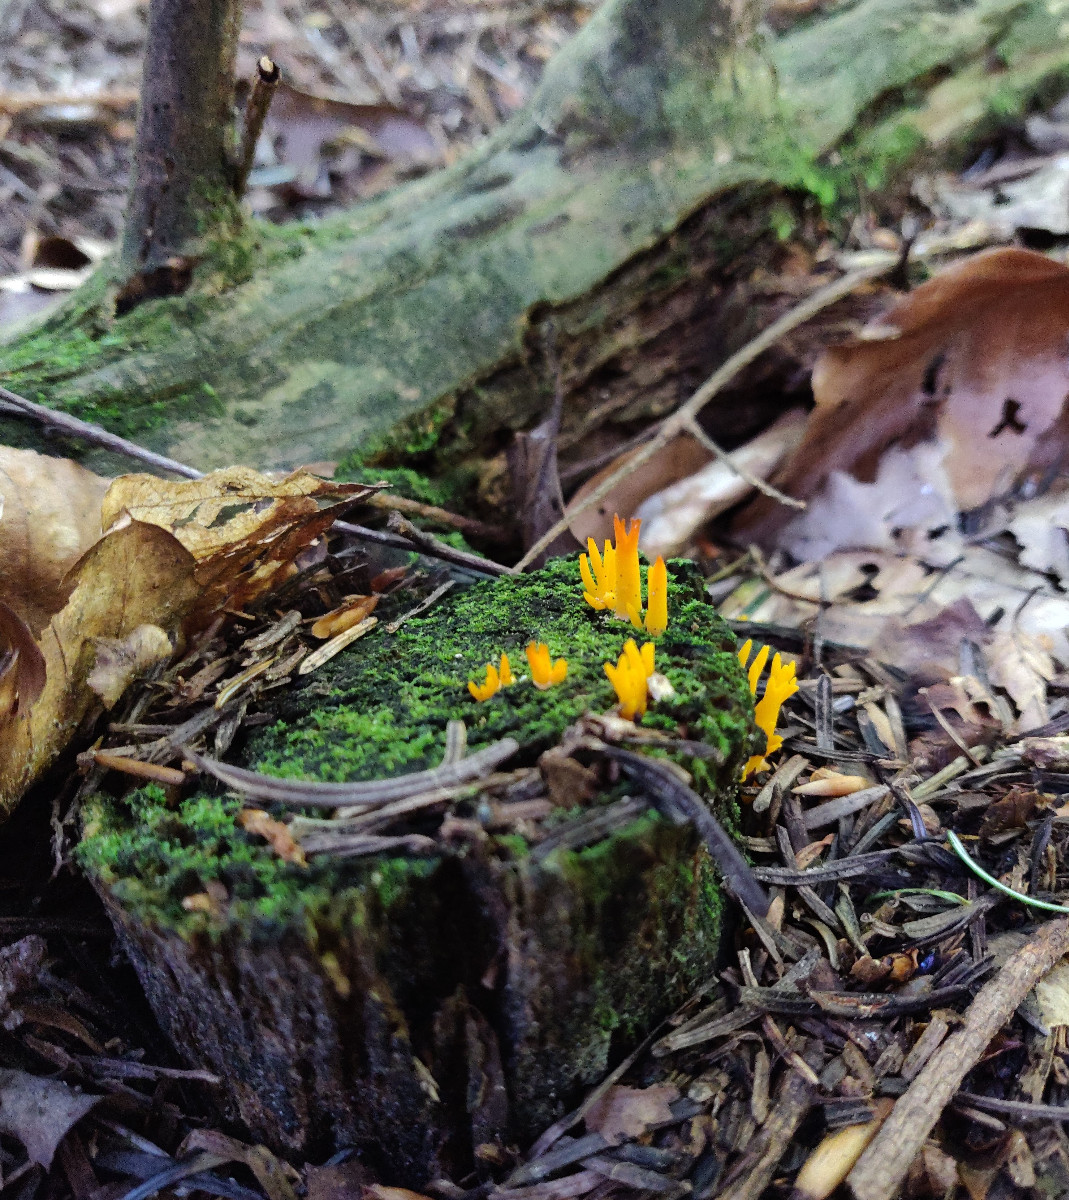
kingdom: Fungi
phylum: Basidiomycota
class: Dacrymycetes
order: Dacrymycetales
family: Dacrymycetaceae
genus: Calocera
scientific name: Calocera viscosa
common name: almindelig guldgaffel
